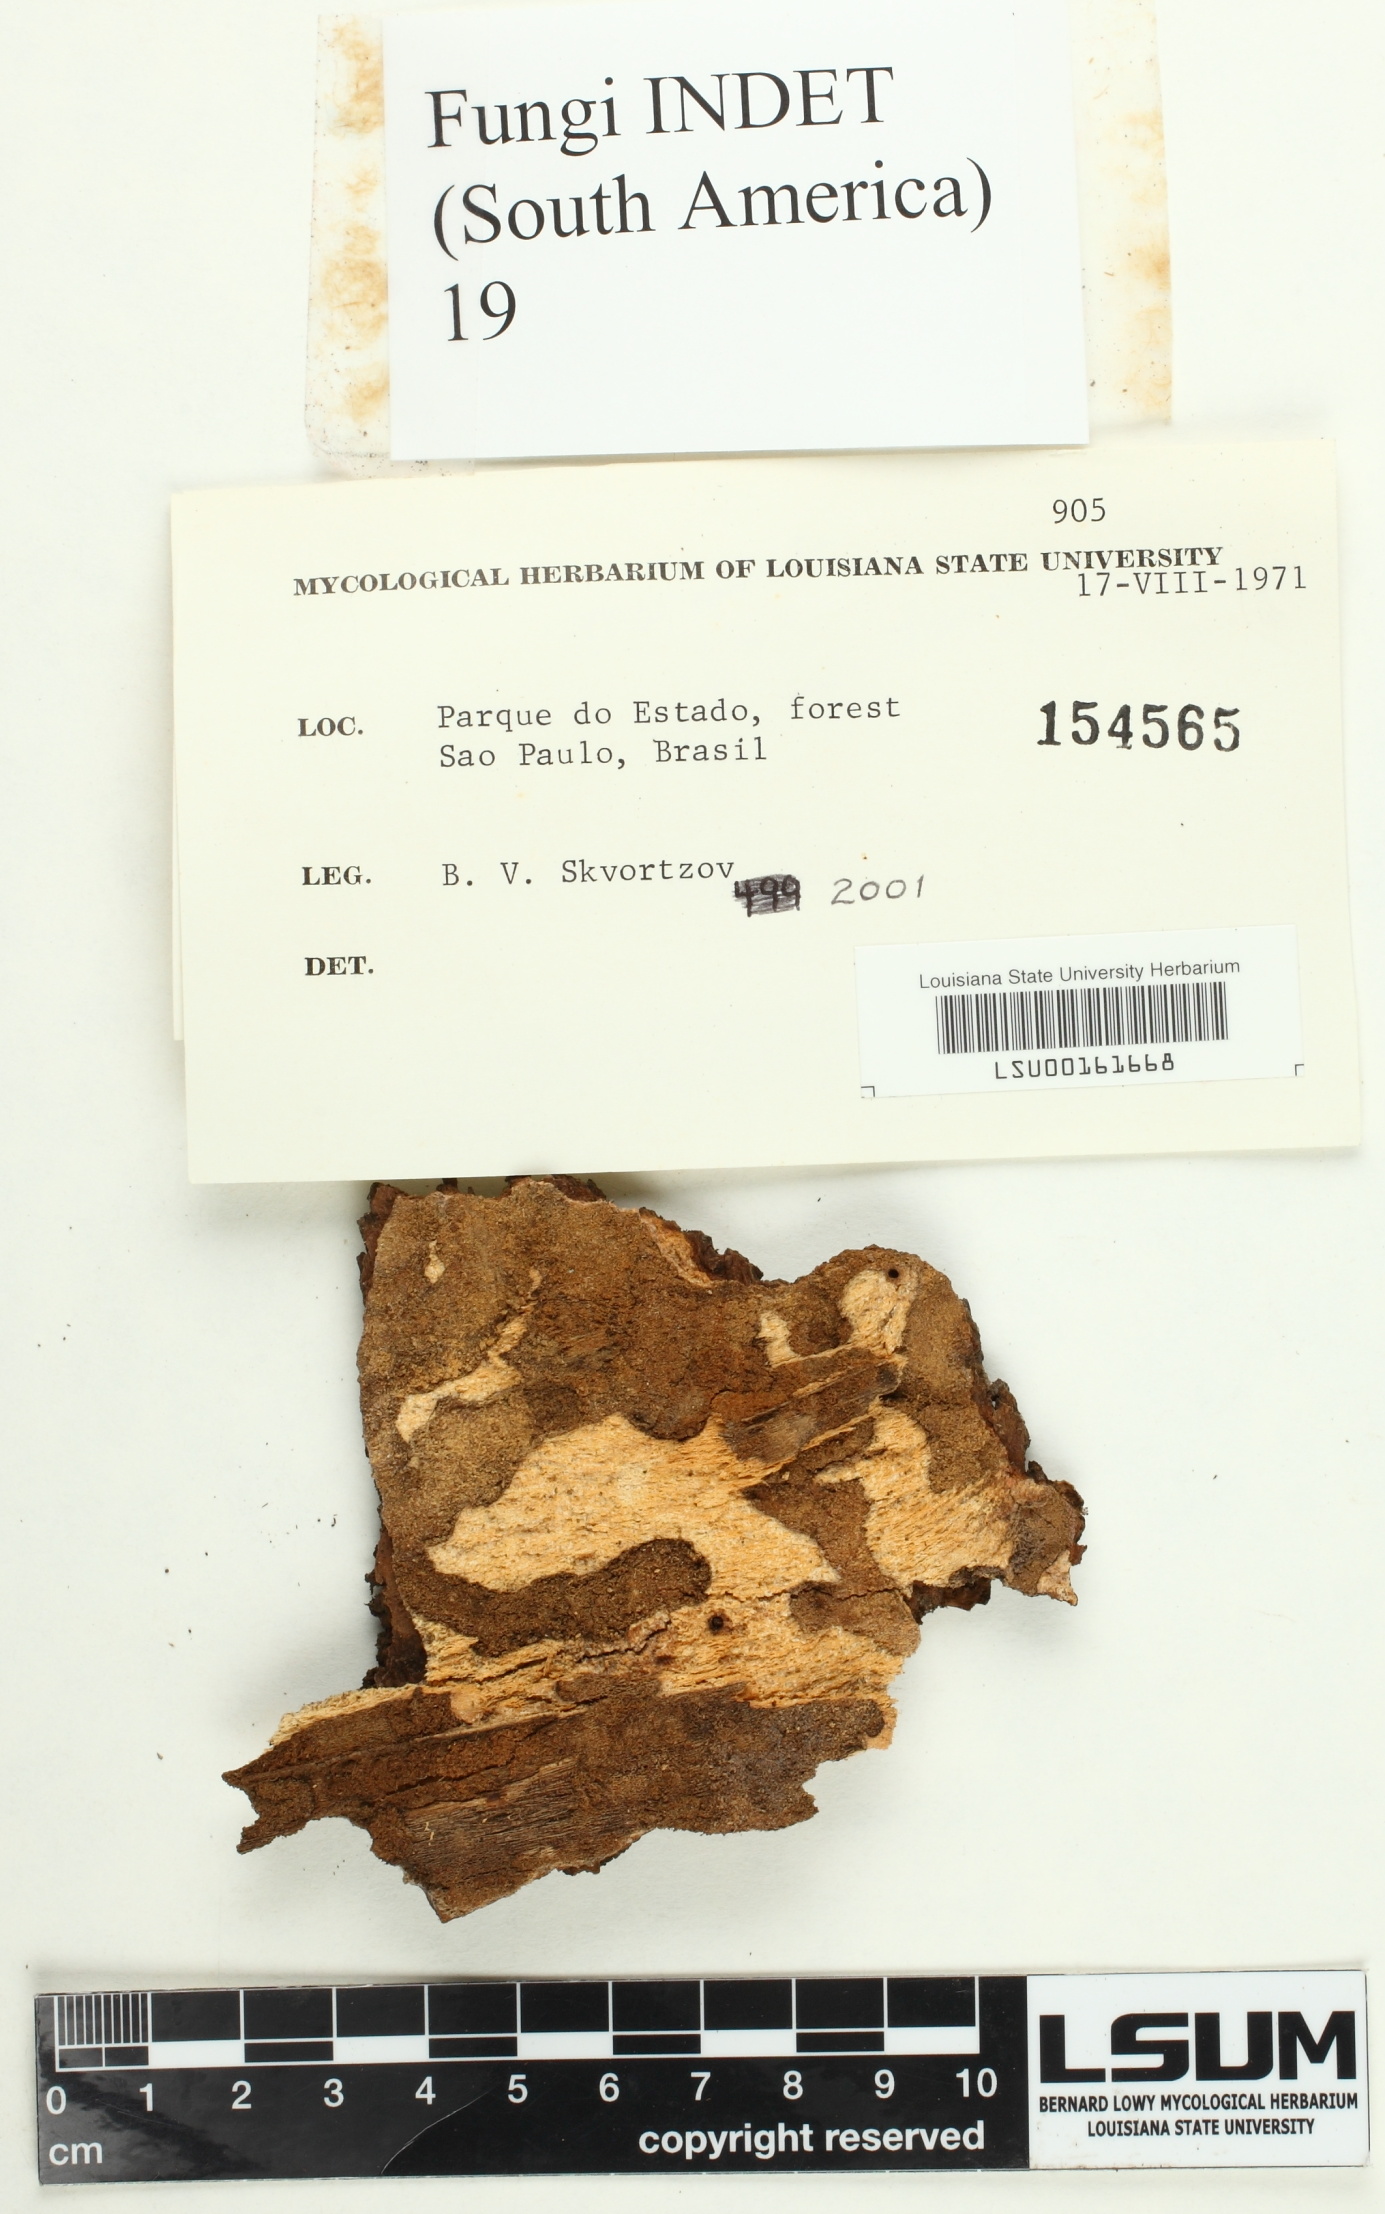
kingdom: Fungi
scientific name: Fungi
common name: Fungi
